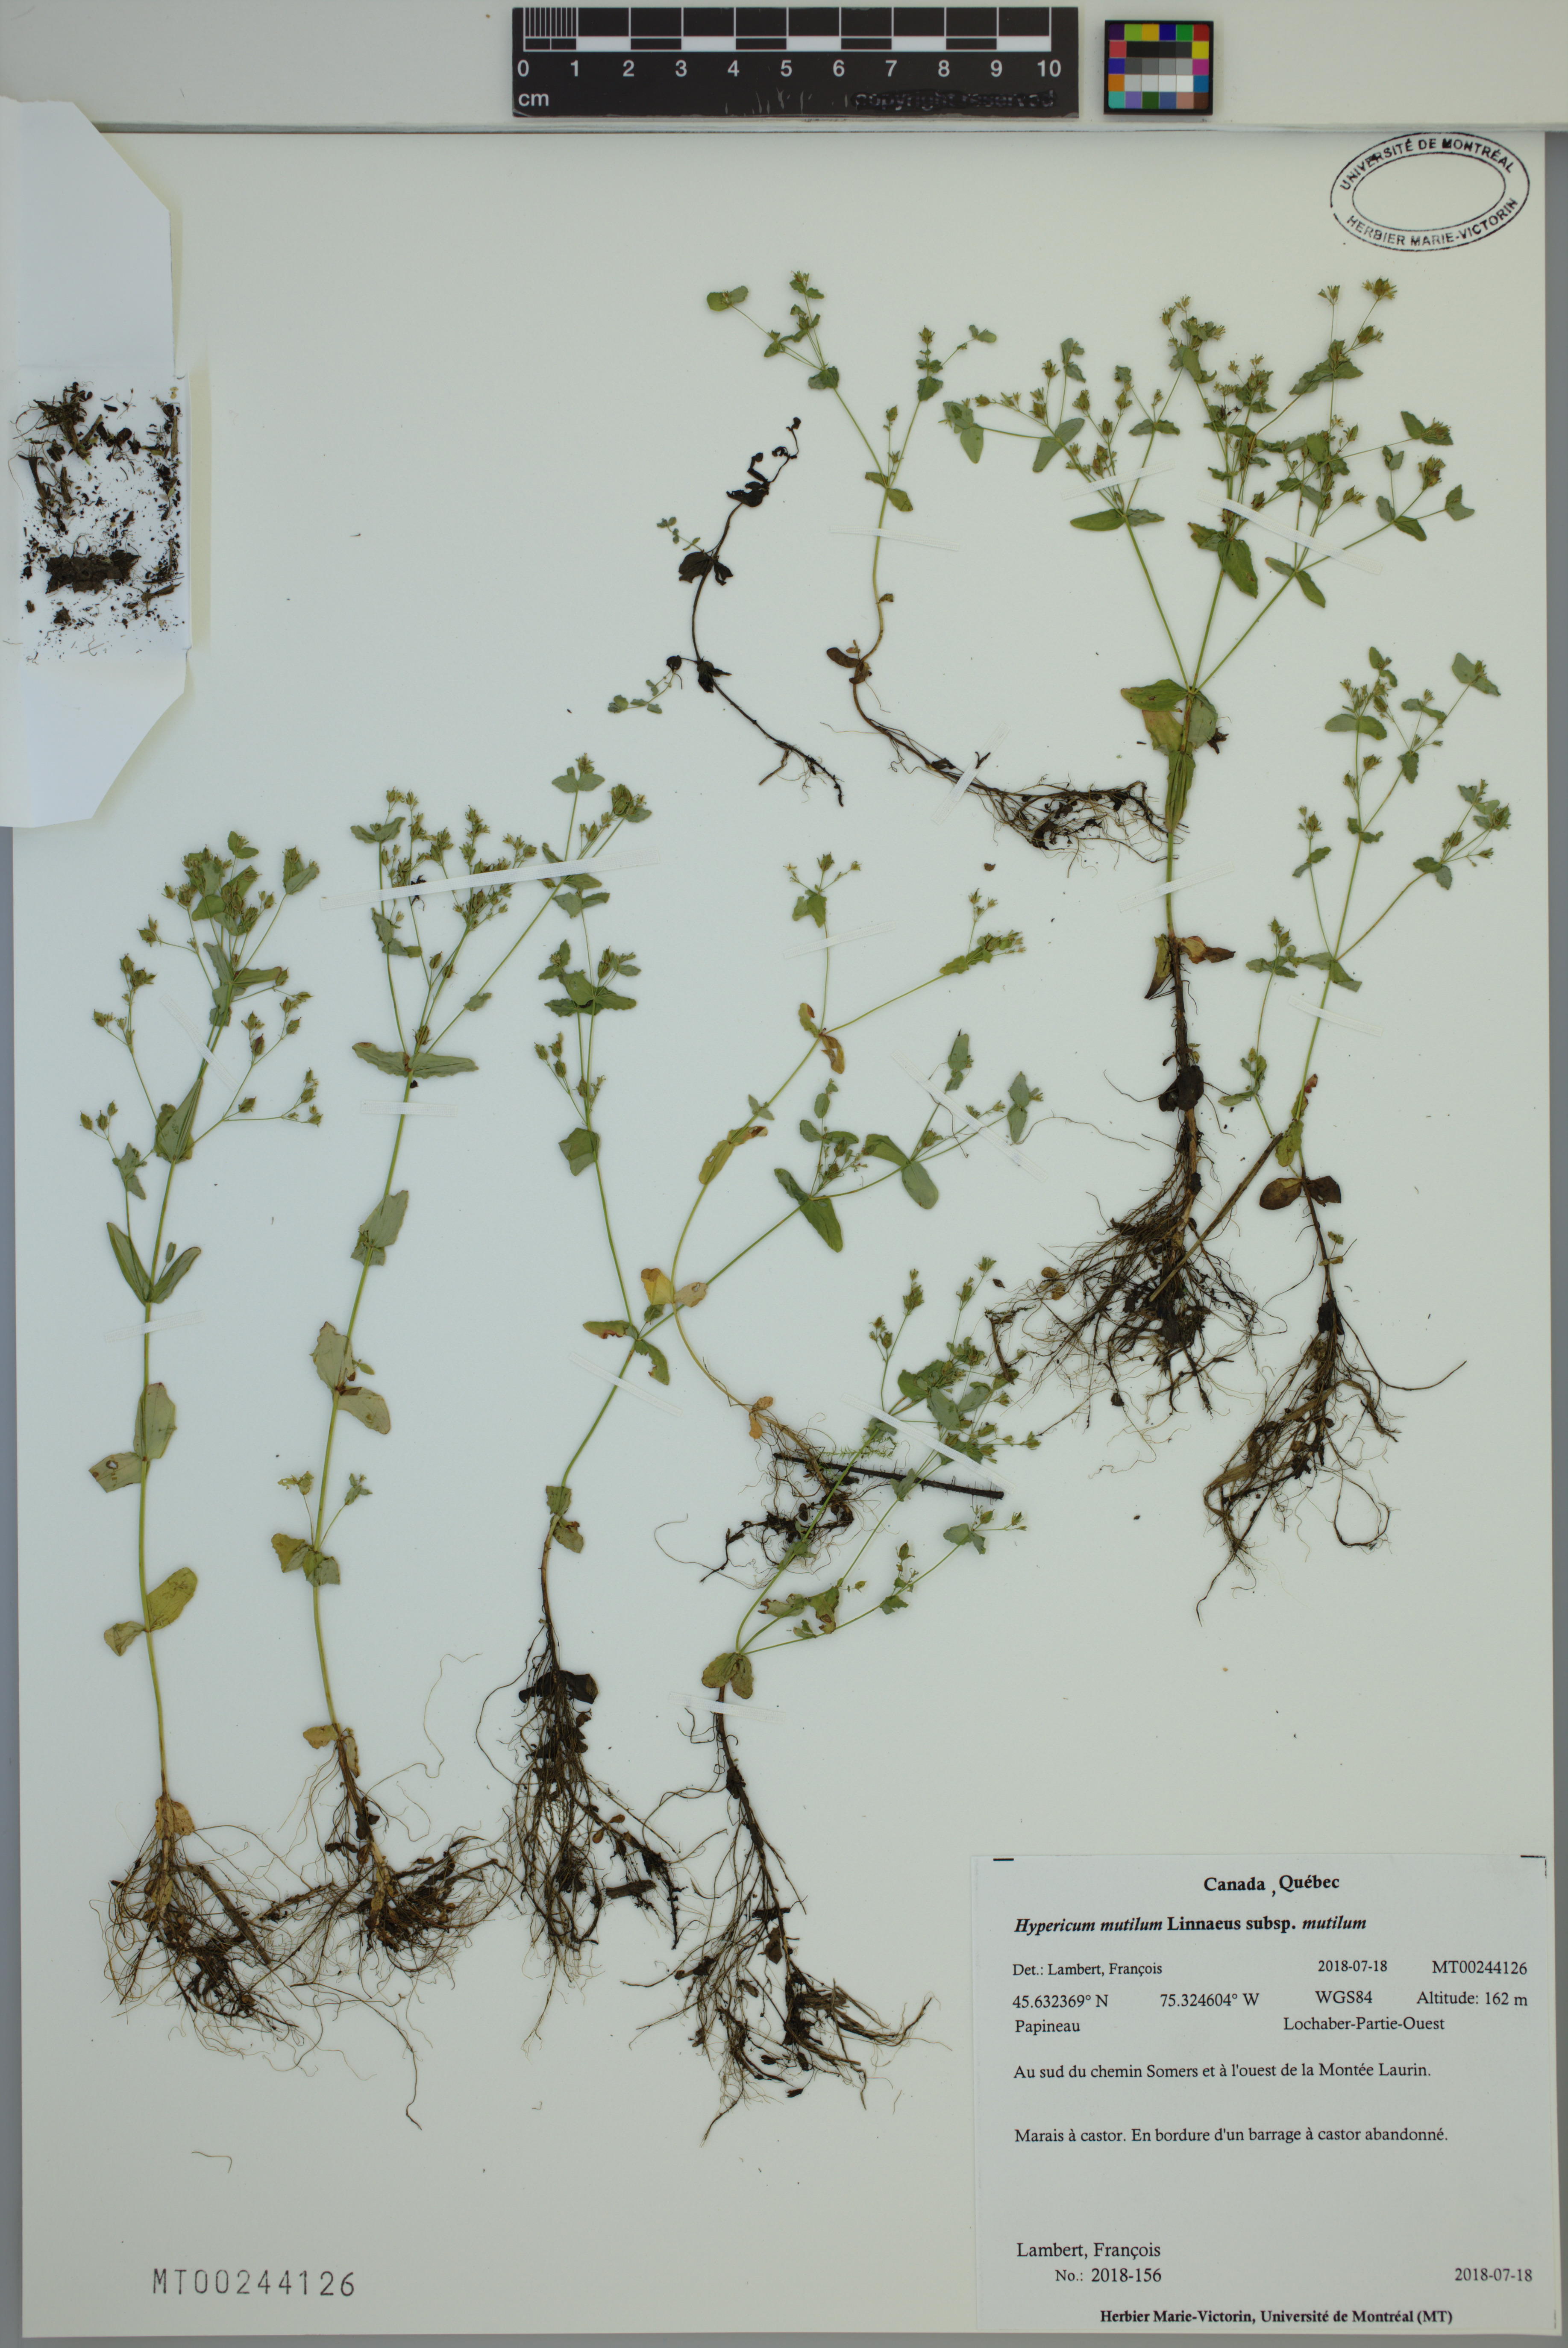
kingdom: Plantae
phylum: Tracheophyta
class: Magnoliopsida
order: Malpighiales
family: Hypericaceae
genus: Hypericum
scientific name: Hypericum mutilum
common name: Dwarf st. john's-wort
